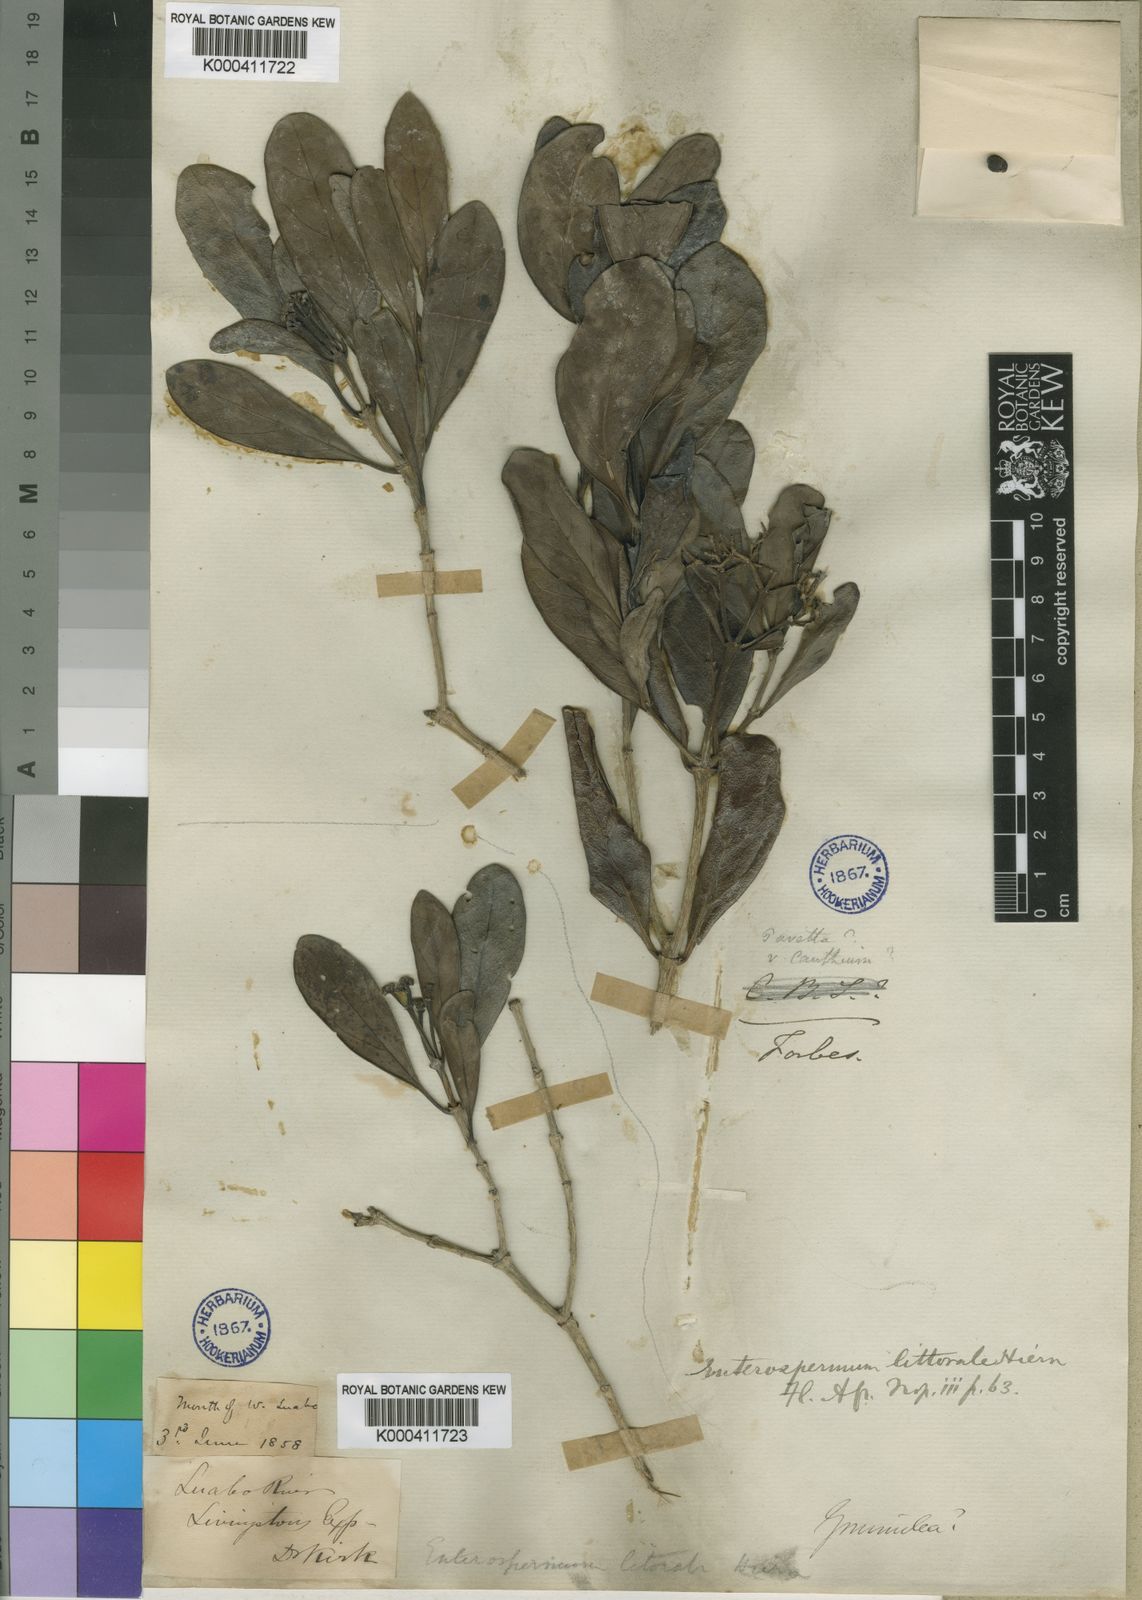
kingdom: Plantae
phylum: Tracheophyta
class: Magnoliopsida
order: Gentianales
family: Rubiaceae
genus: Coptosperma
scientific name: Coptosperma littorale
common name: Dune butterspoon
